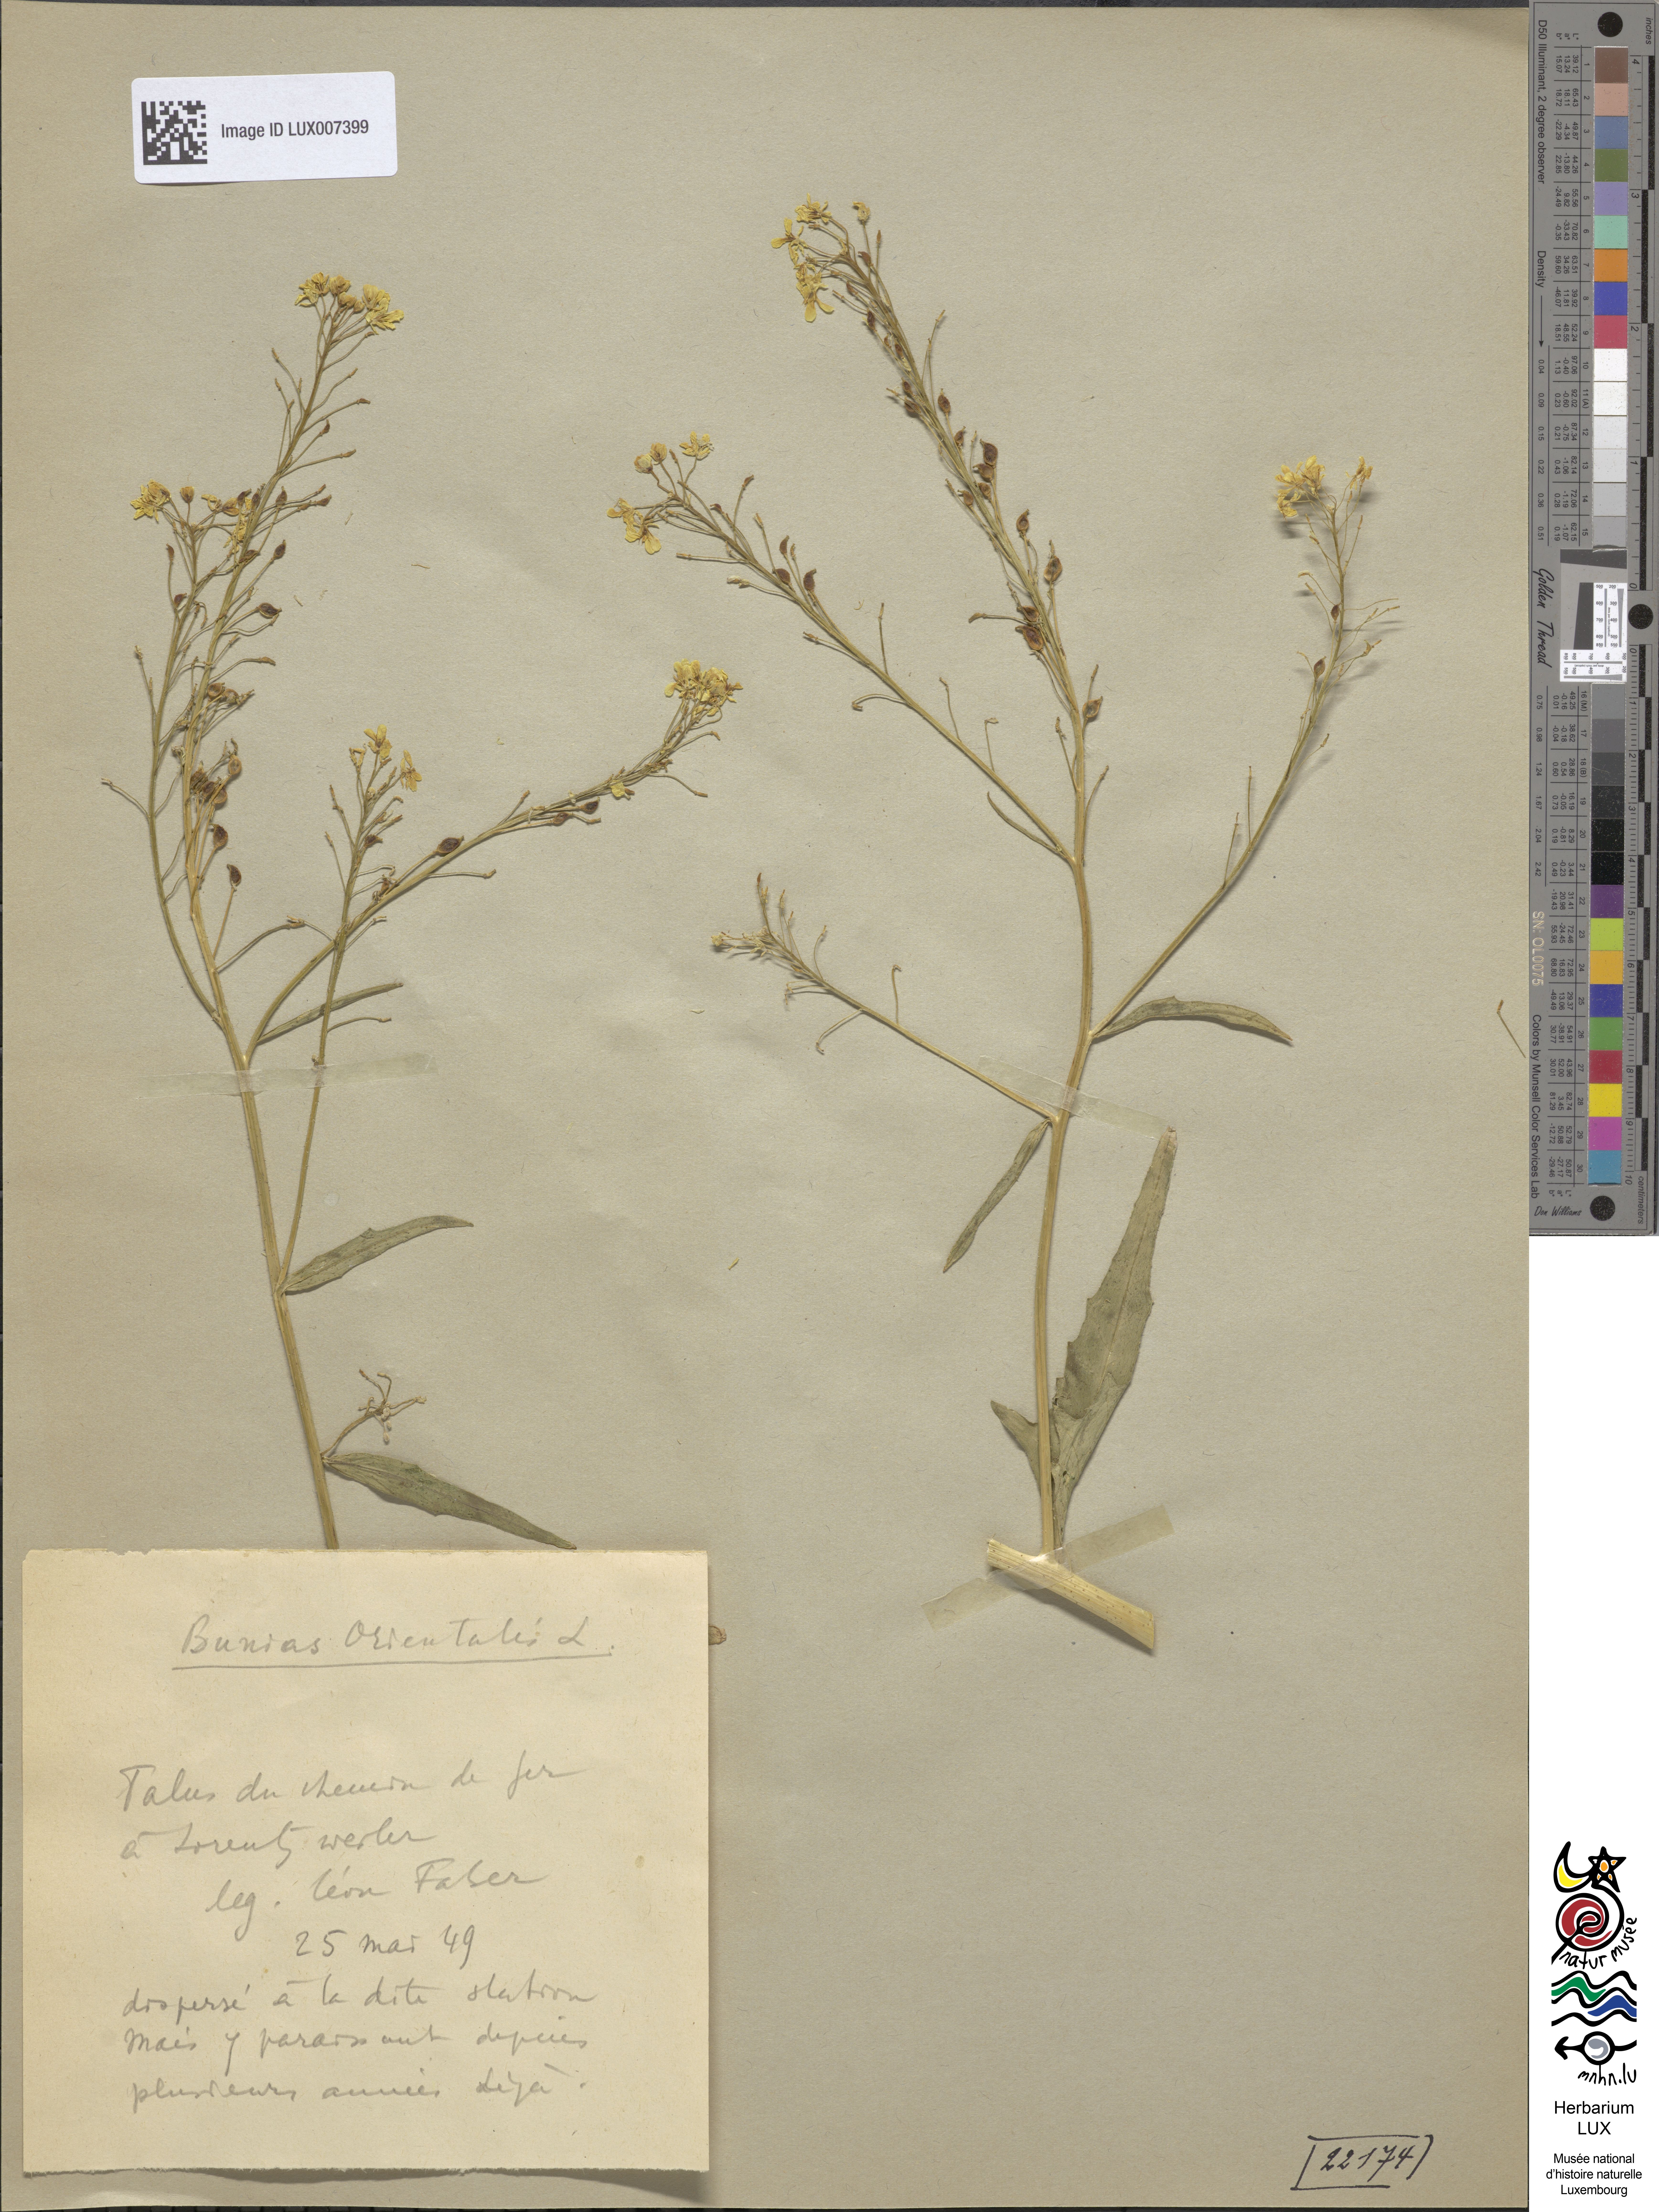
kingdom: Plantae
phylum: Tracheophyta
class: Magnoliopsida
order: Brassicales
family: Brassicaceae
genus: Bunias
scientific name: Bunias orientalis
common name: Warty-cabbage
